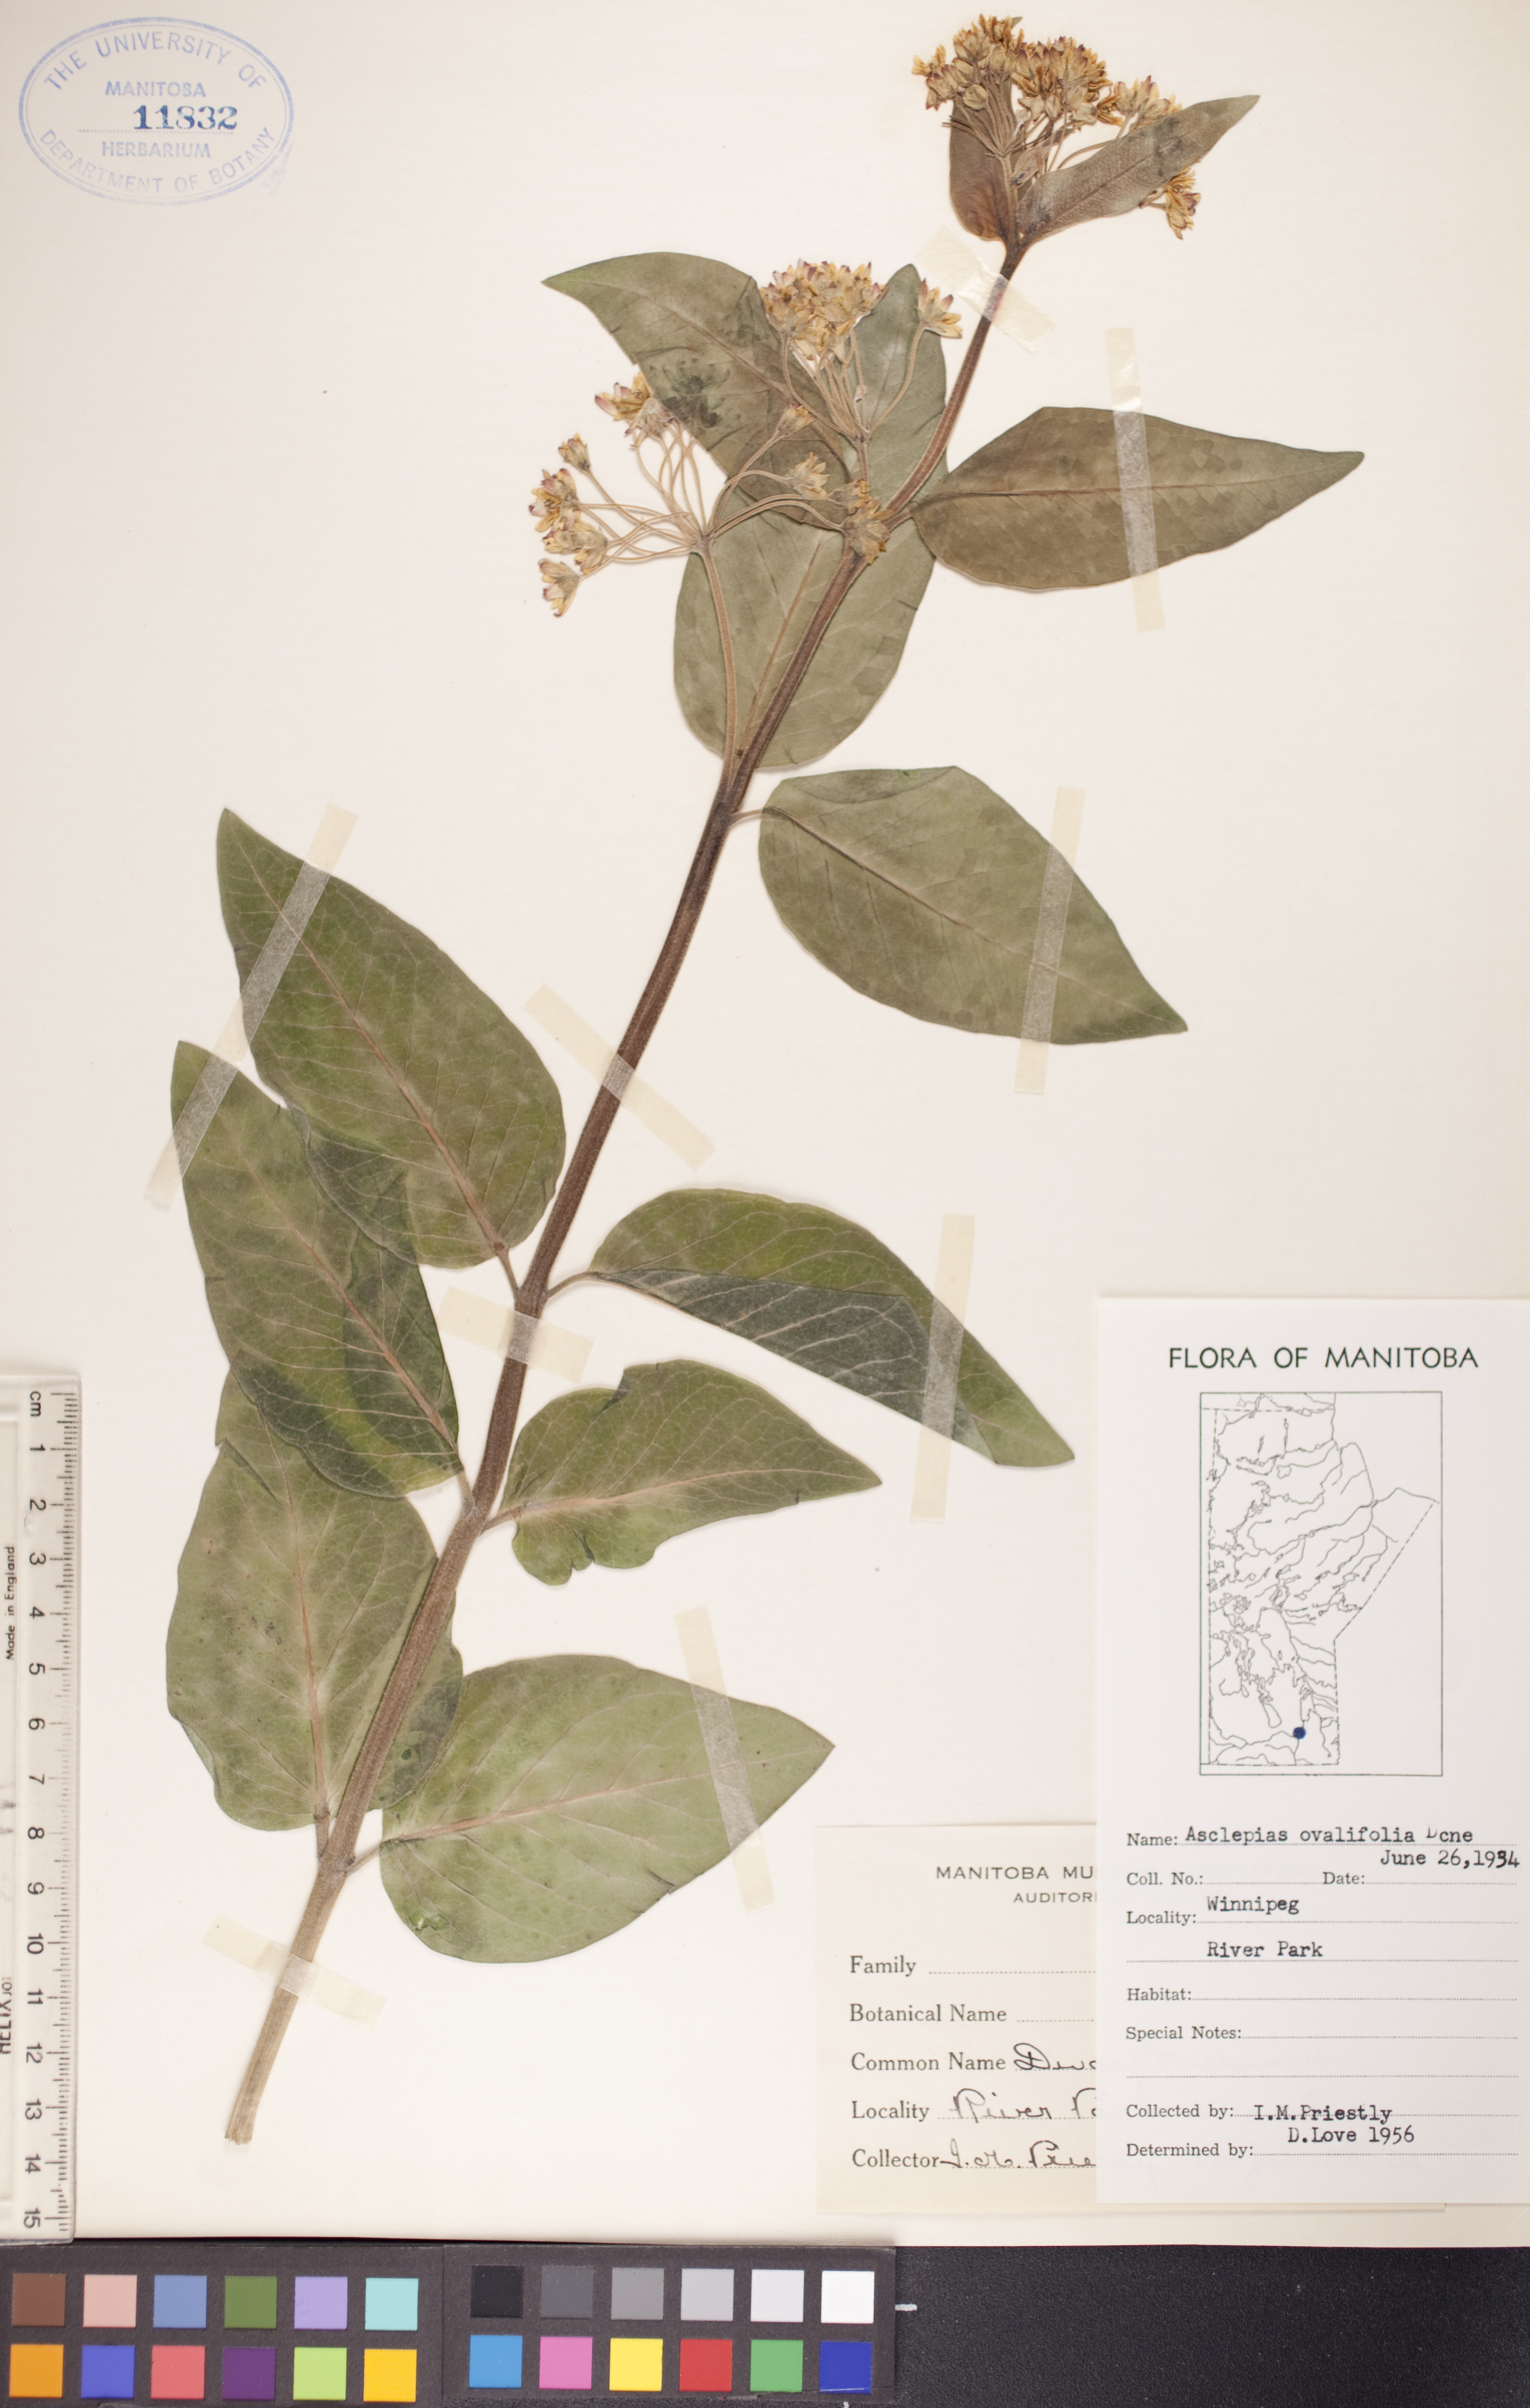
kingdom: Plantae
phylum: Tracheophyta
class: Magnoliopsida
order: Gentianales
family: Apocynaceae
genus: Asclepias
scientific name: Asclepias ovalifolia
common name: Dwarf milkweed
